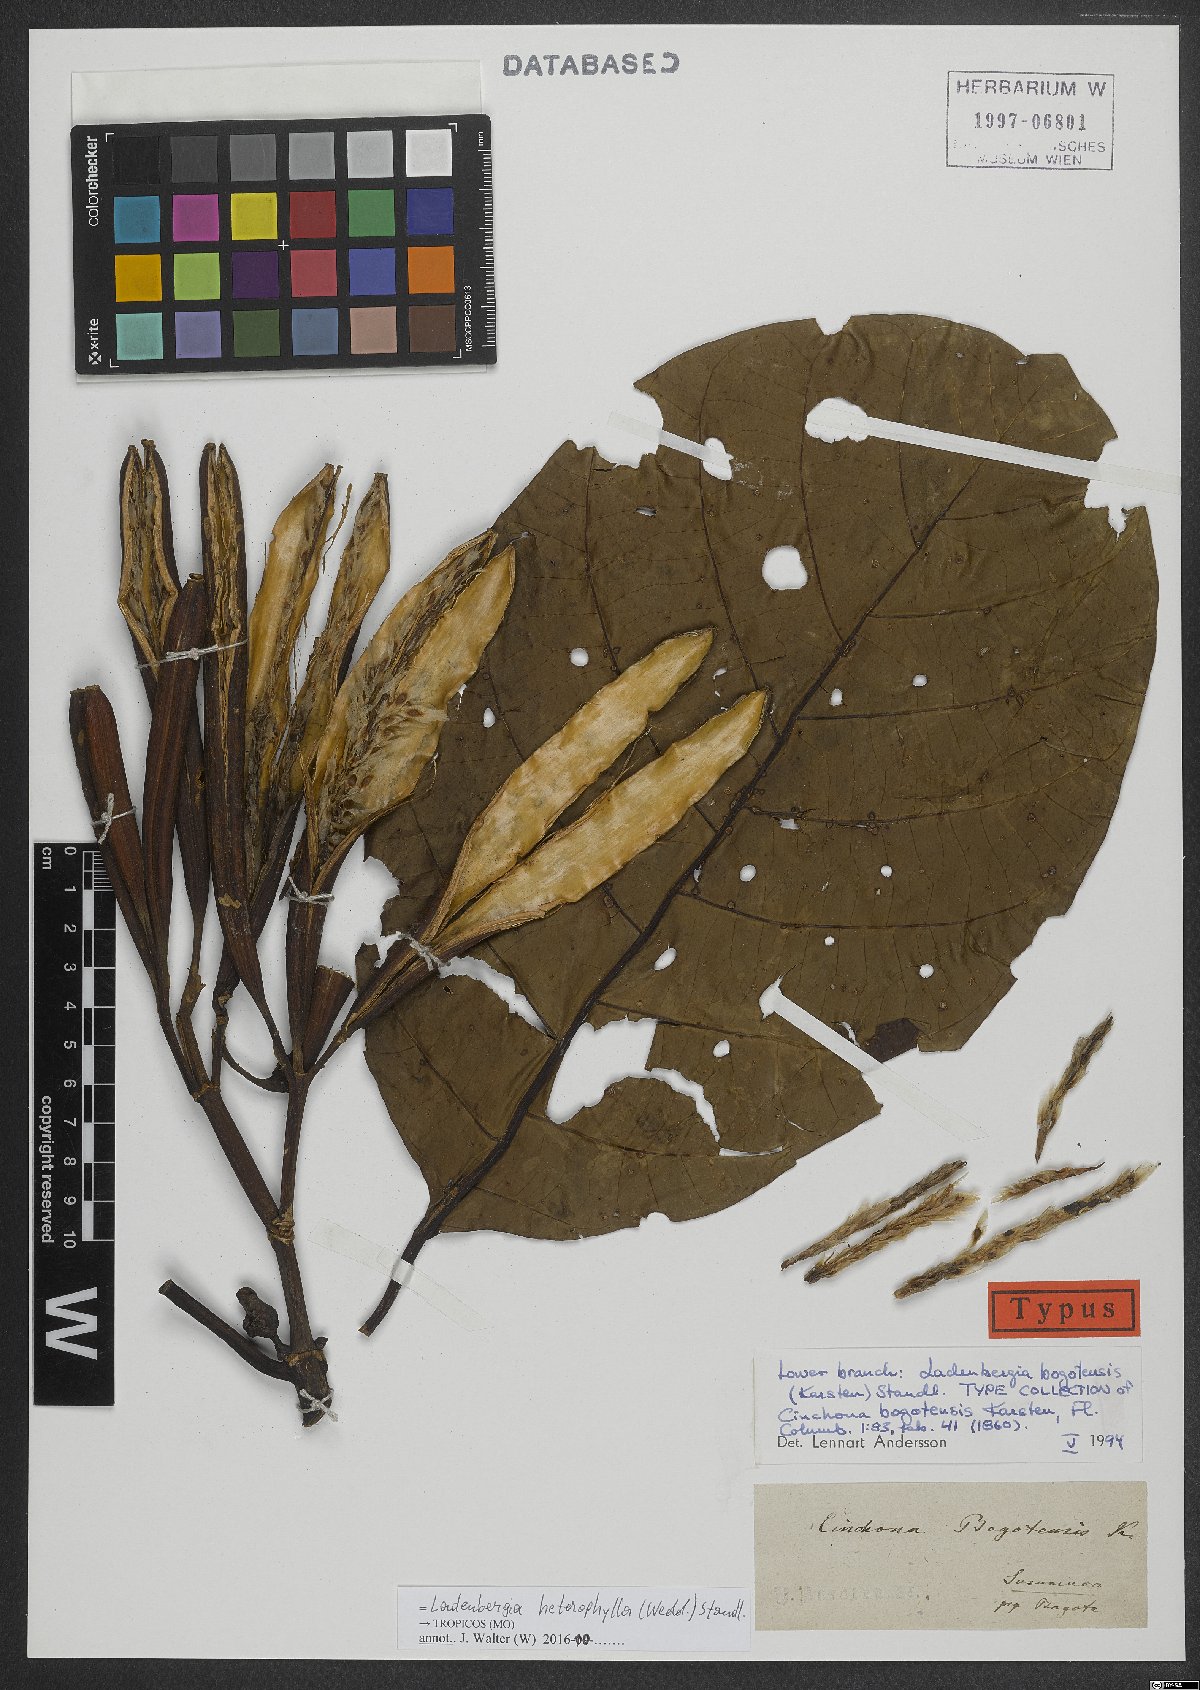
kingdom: Plantae
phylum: Tracheophyta
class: Magnoliopsida
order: Gentianales
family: Rubiaceae
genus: Ladenbergia
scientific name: Ladenbergia heterophylla
